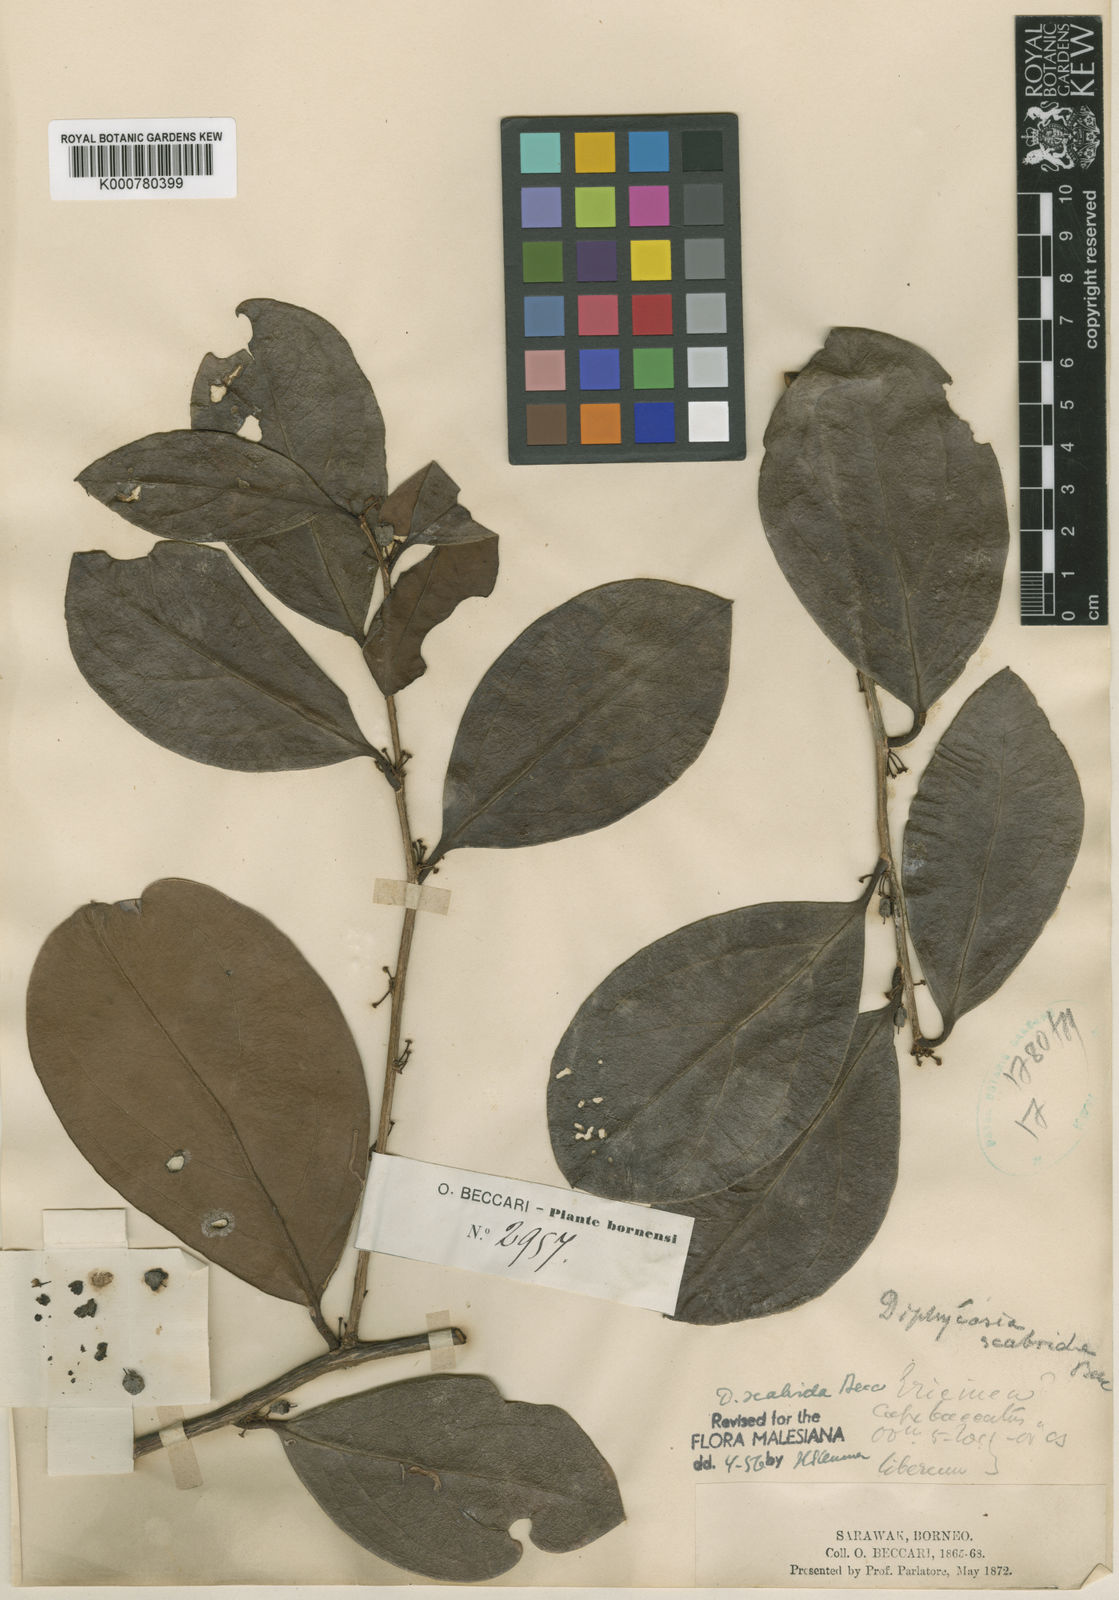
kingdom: Plantae
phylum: Tracheophyta
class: Magnoliopsida
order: Ericales
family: Ericaceae
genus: Gaultheria
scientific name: Gaultheria scabrida
